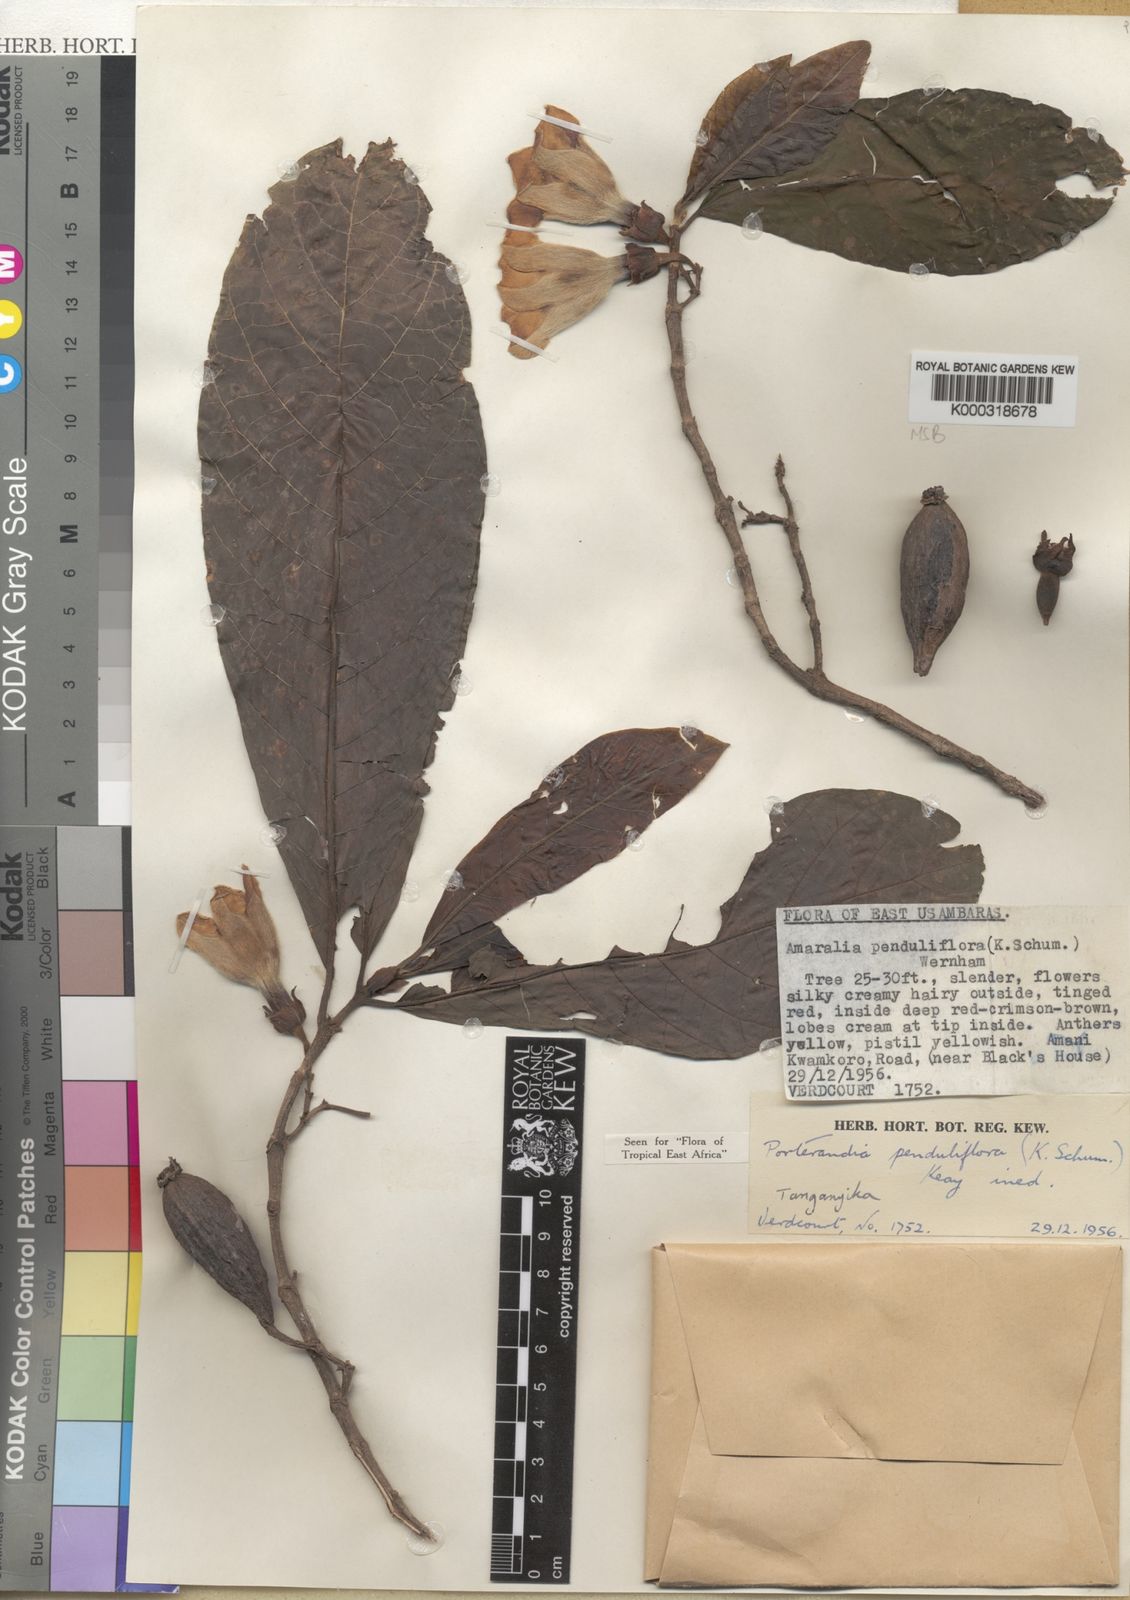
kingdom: Plantae
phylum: Tracheophyta
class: Magnoliopsida
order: Gentianales
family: Rubiaceae
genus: Aoranthe
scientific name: Aoranthe penduliflora
